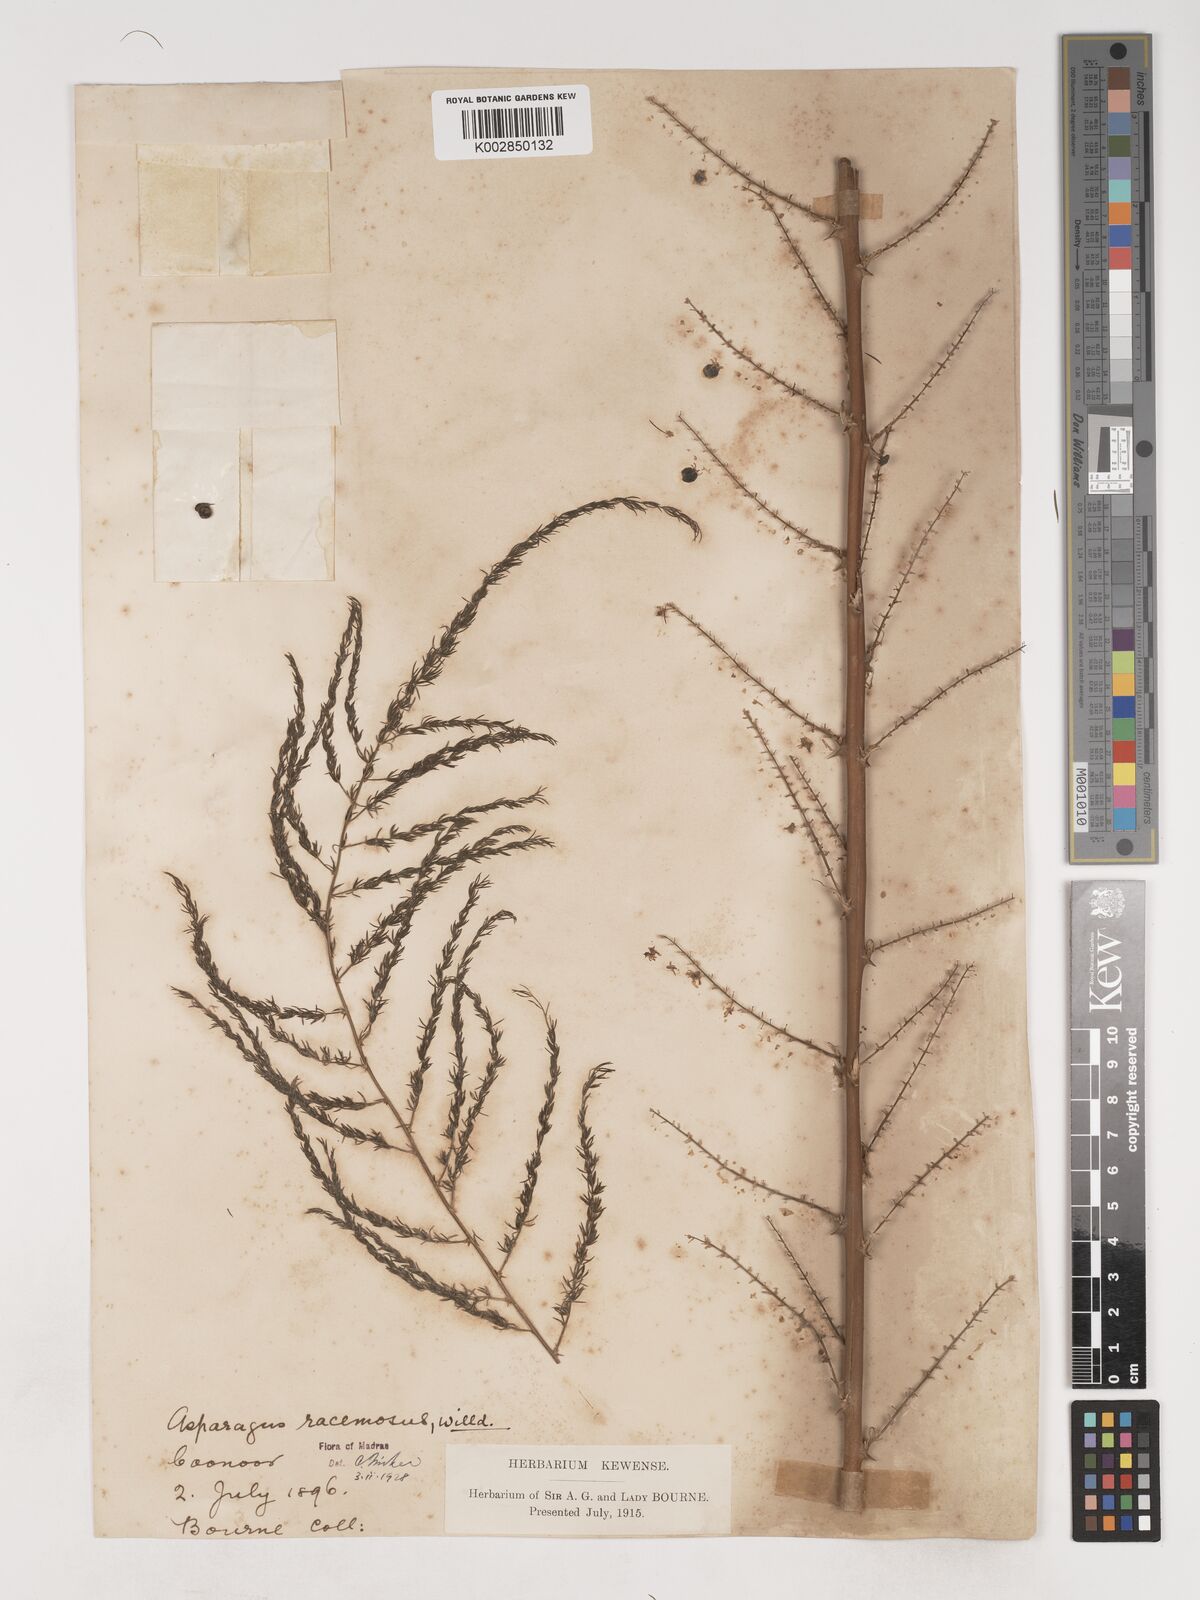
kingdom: Plantae
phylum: Tracheophyta
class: Liliopsida
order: Asparagales
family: Asparagaceae
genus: Asparagus
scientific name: Asparagus racemosus
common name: Asparagus-fern
